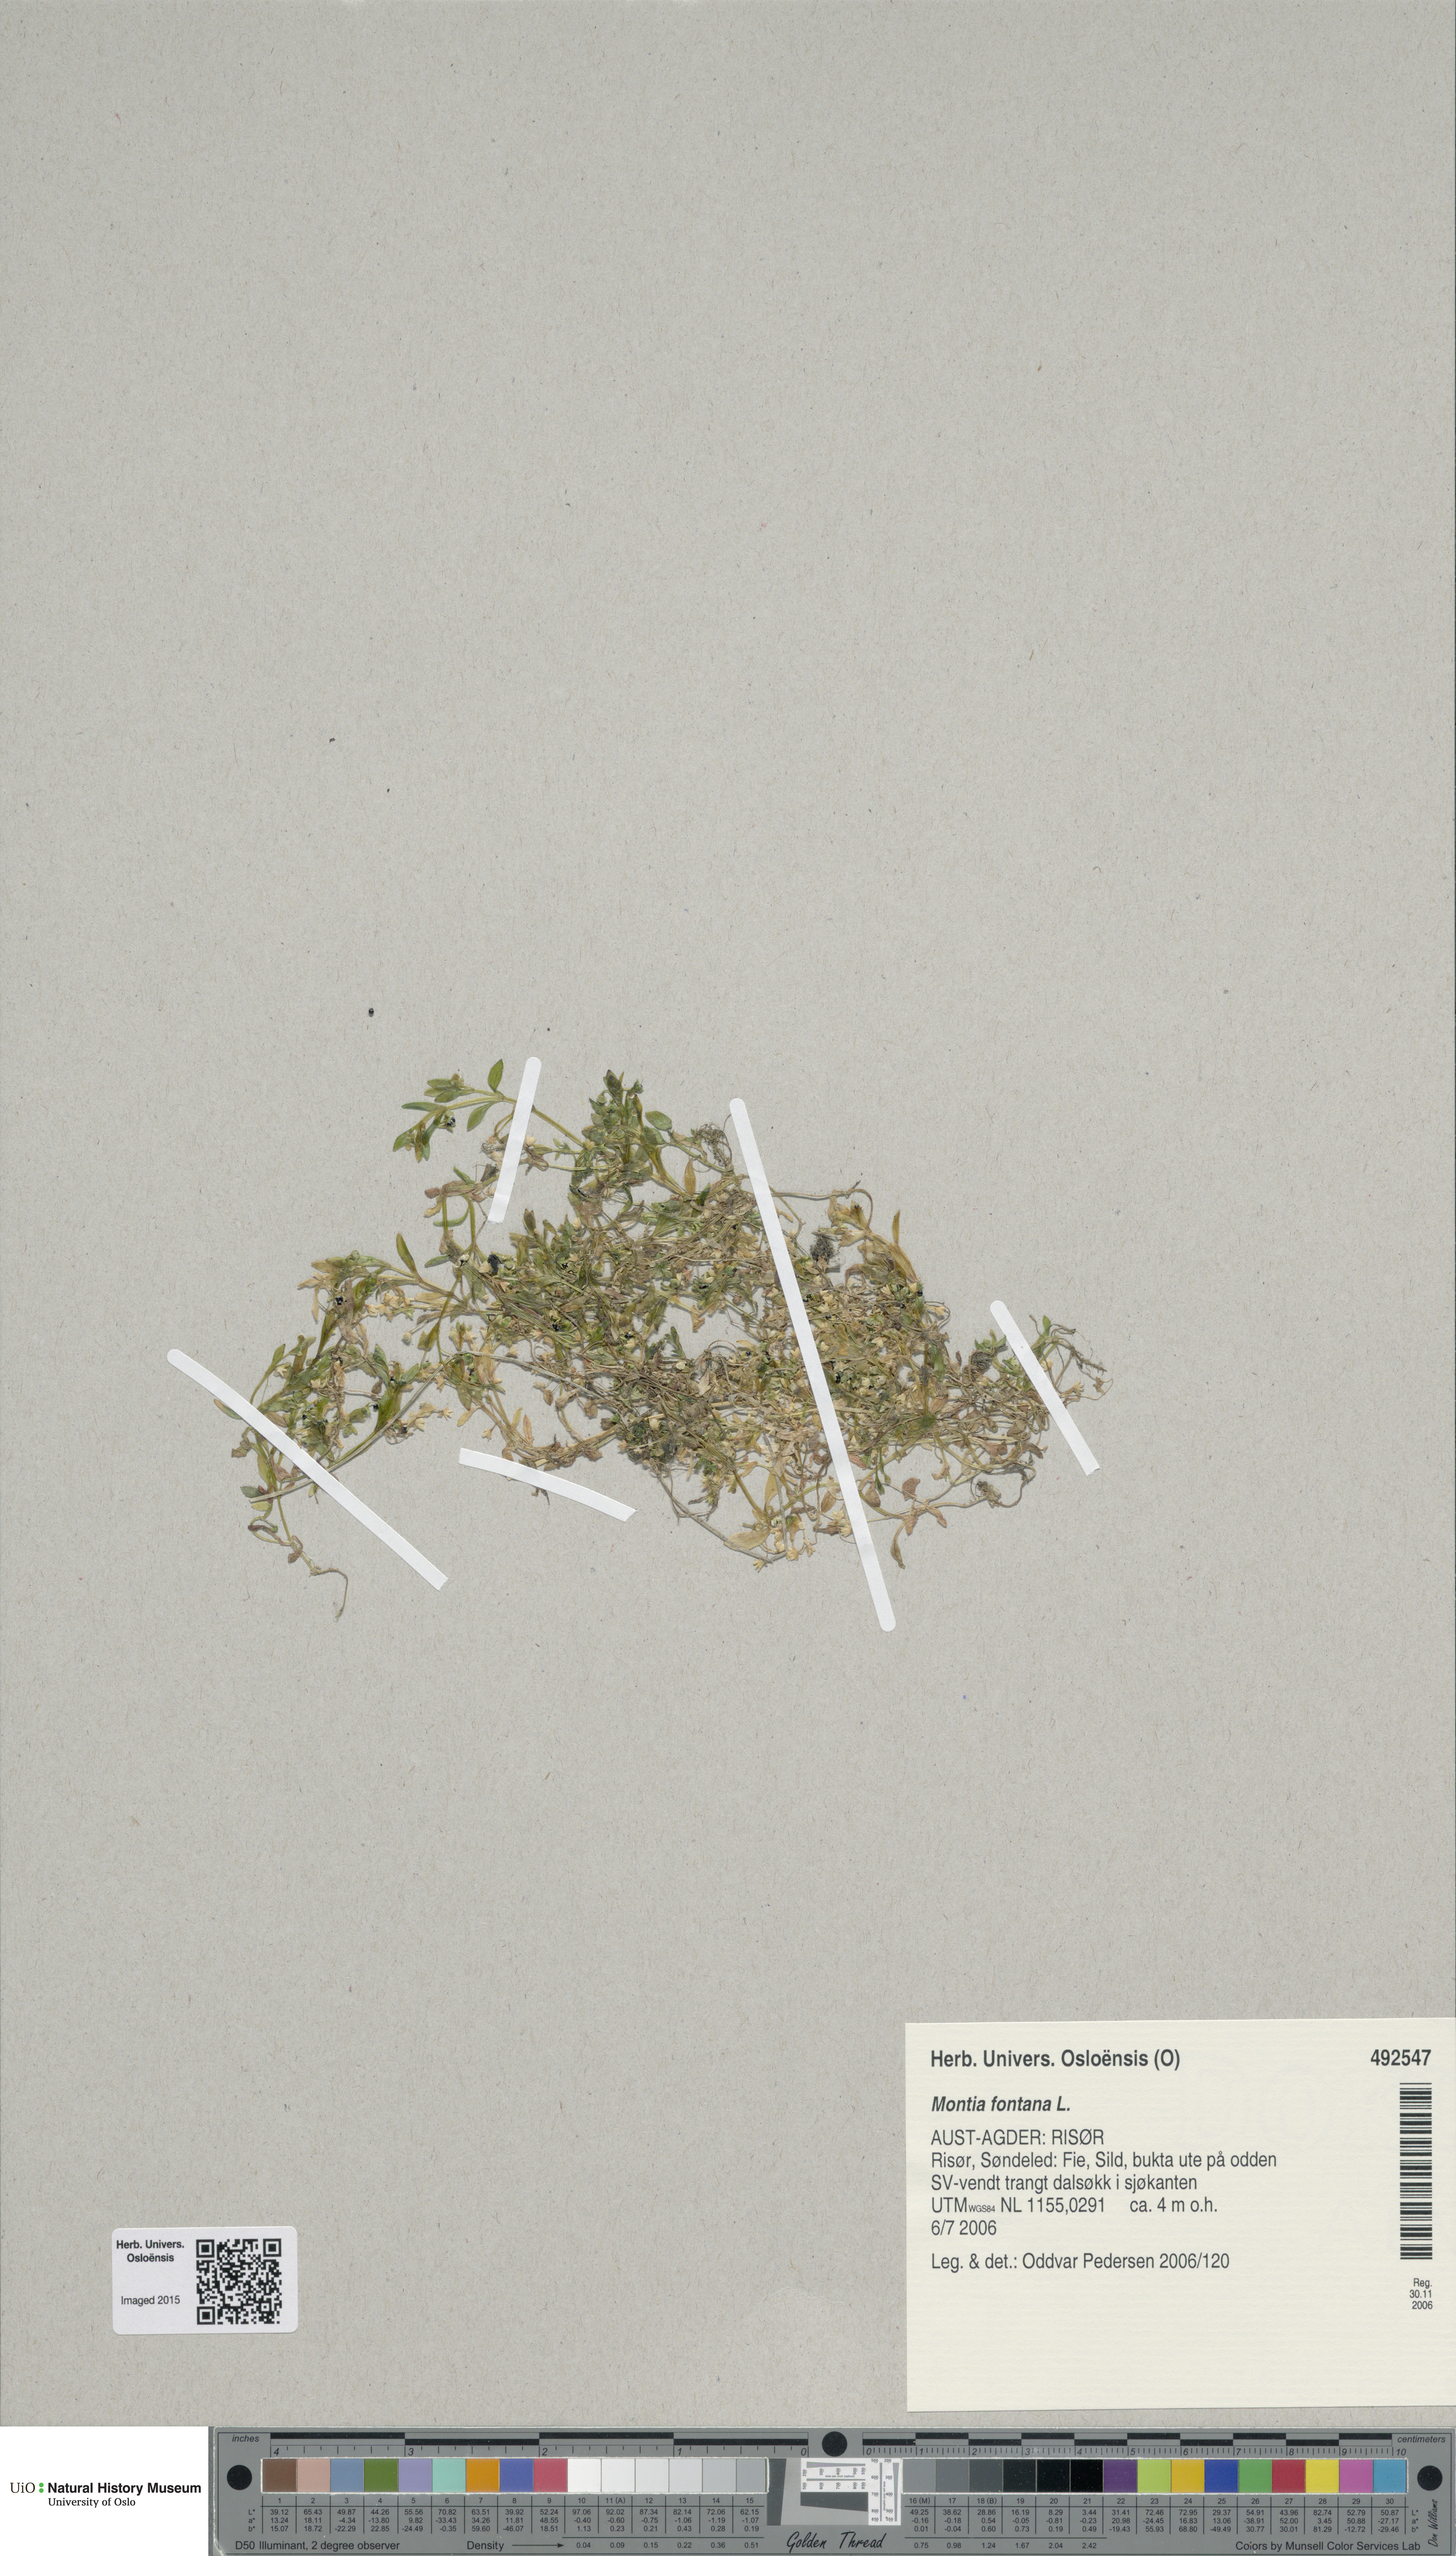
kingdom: Plantae
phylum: Tracheophyta
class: Magnoliopsida
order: Caryophyllales
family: Montiaceae
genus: Montia
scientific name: Montia fontana
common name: Blinks
